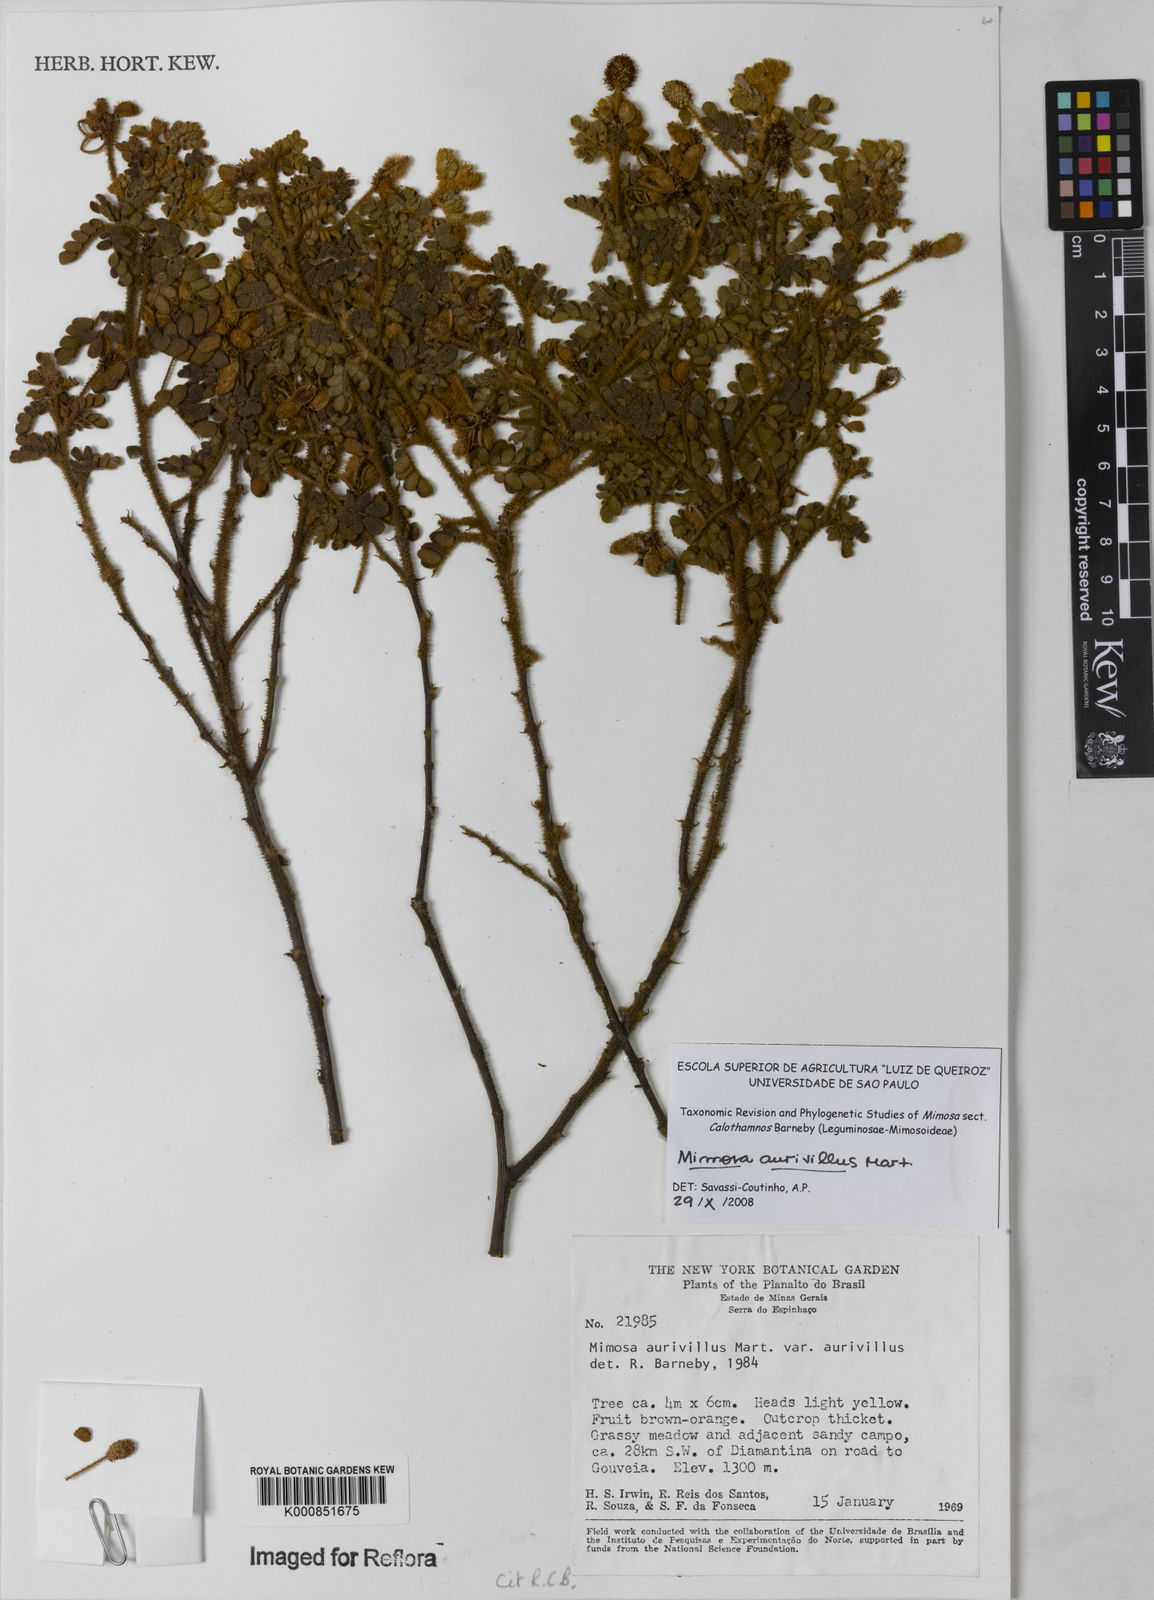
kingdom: Plantae
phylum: Tracheophyta
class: Magnoliopsida
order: Fabales
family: Fabaceae
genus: Mimosa
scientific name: Mimosa aurivillus
